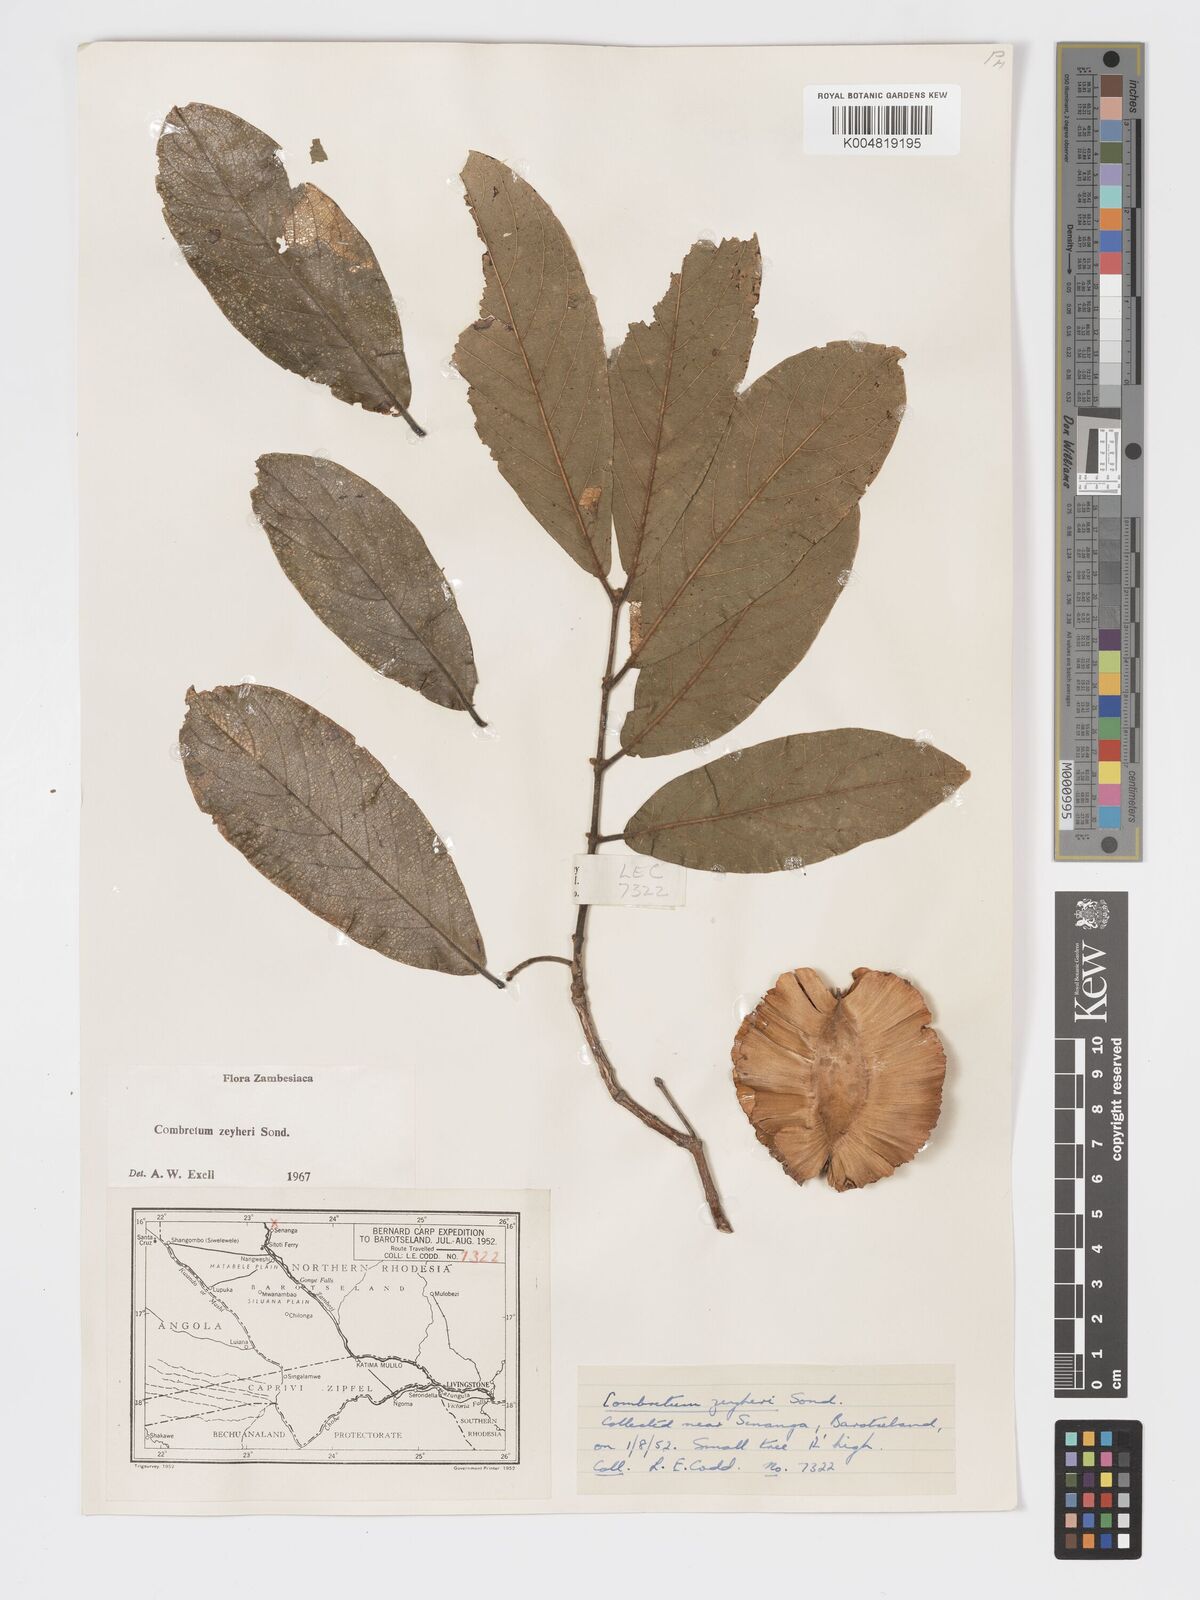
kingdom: Plantae
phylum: Tracheophyta
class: Magnoliopsida
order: Myrtales
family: Combretaceae
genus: Combretum
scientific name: Combretum zeyheri
